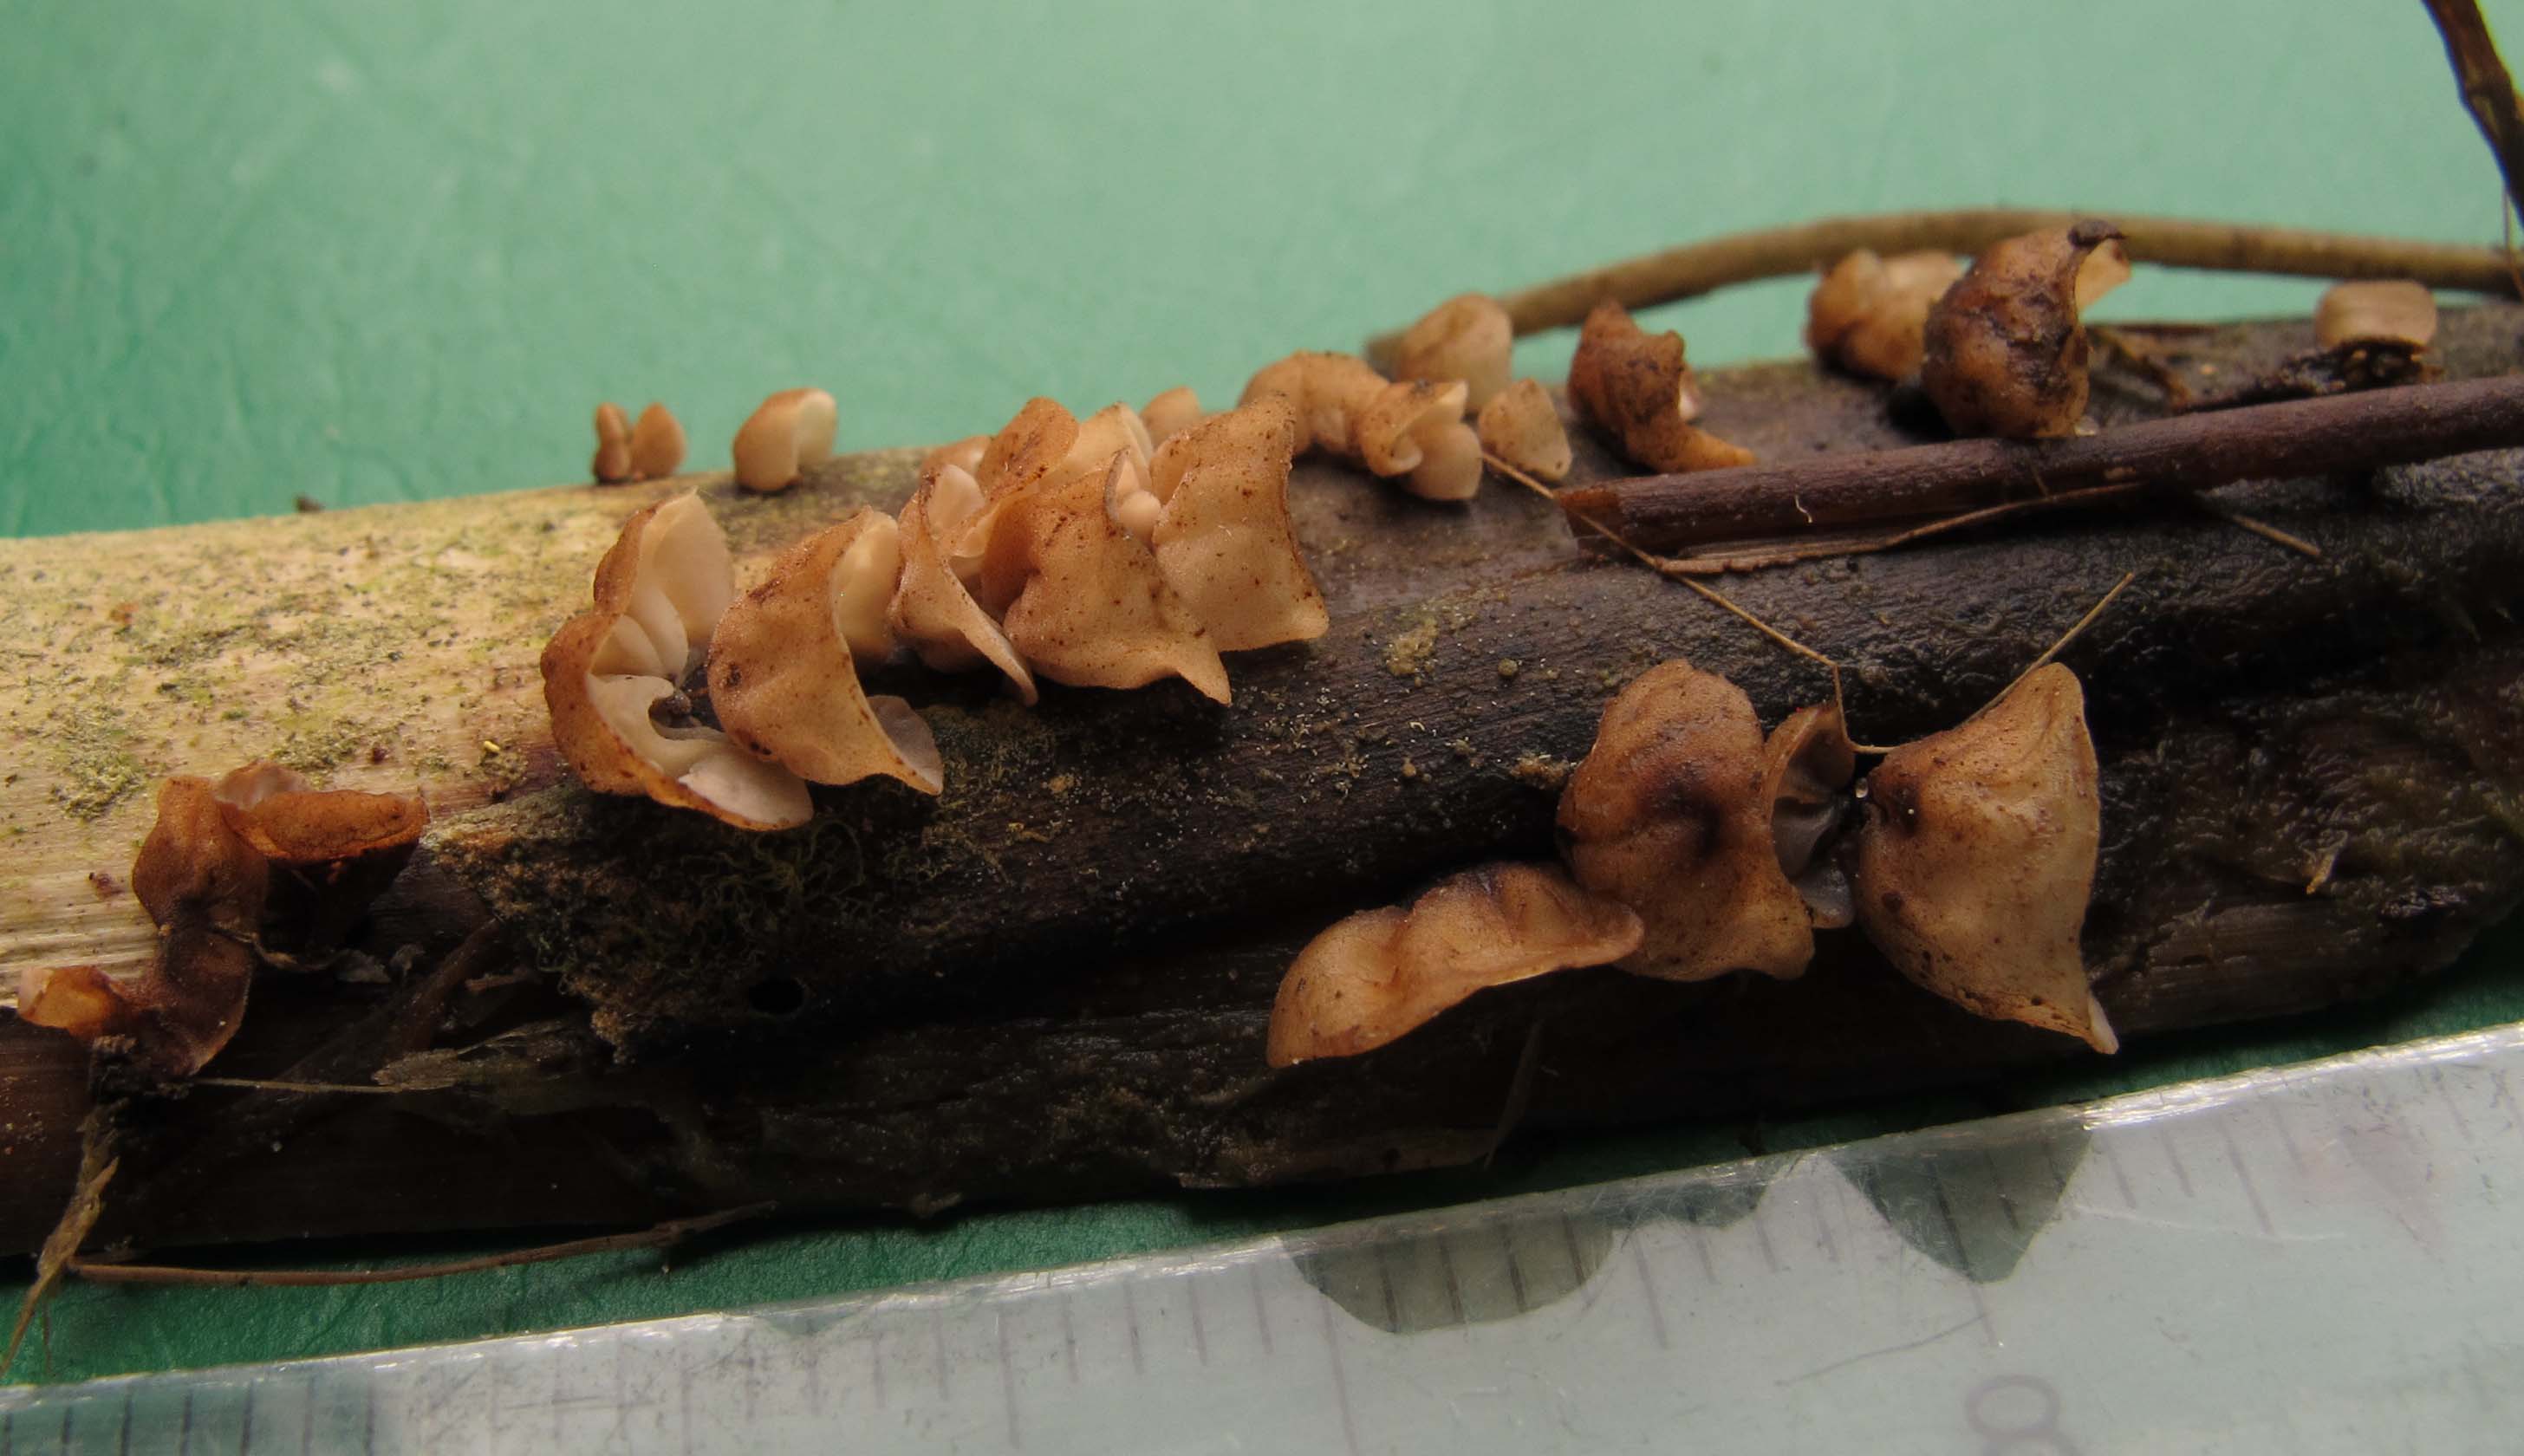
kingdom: Fungi
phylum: Basidiomycota
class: Agaricomycetes
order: Agaricales
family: Physalacriaceae
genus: Gloiocephala
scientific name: Gloiocephala menieri
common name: dunhammer-spatelhat
